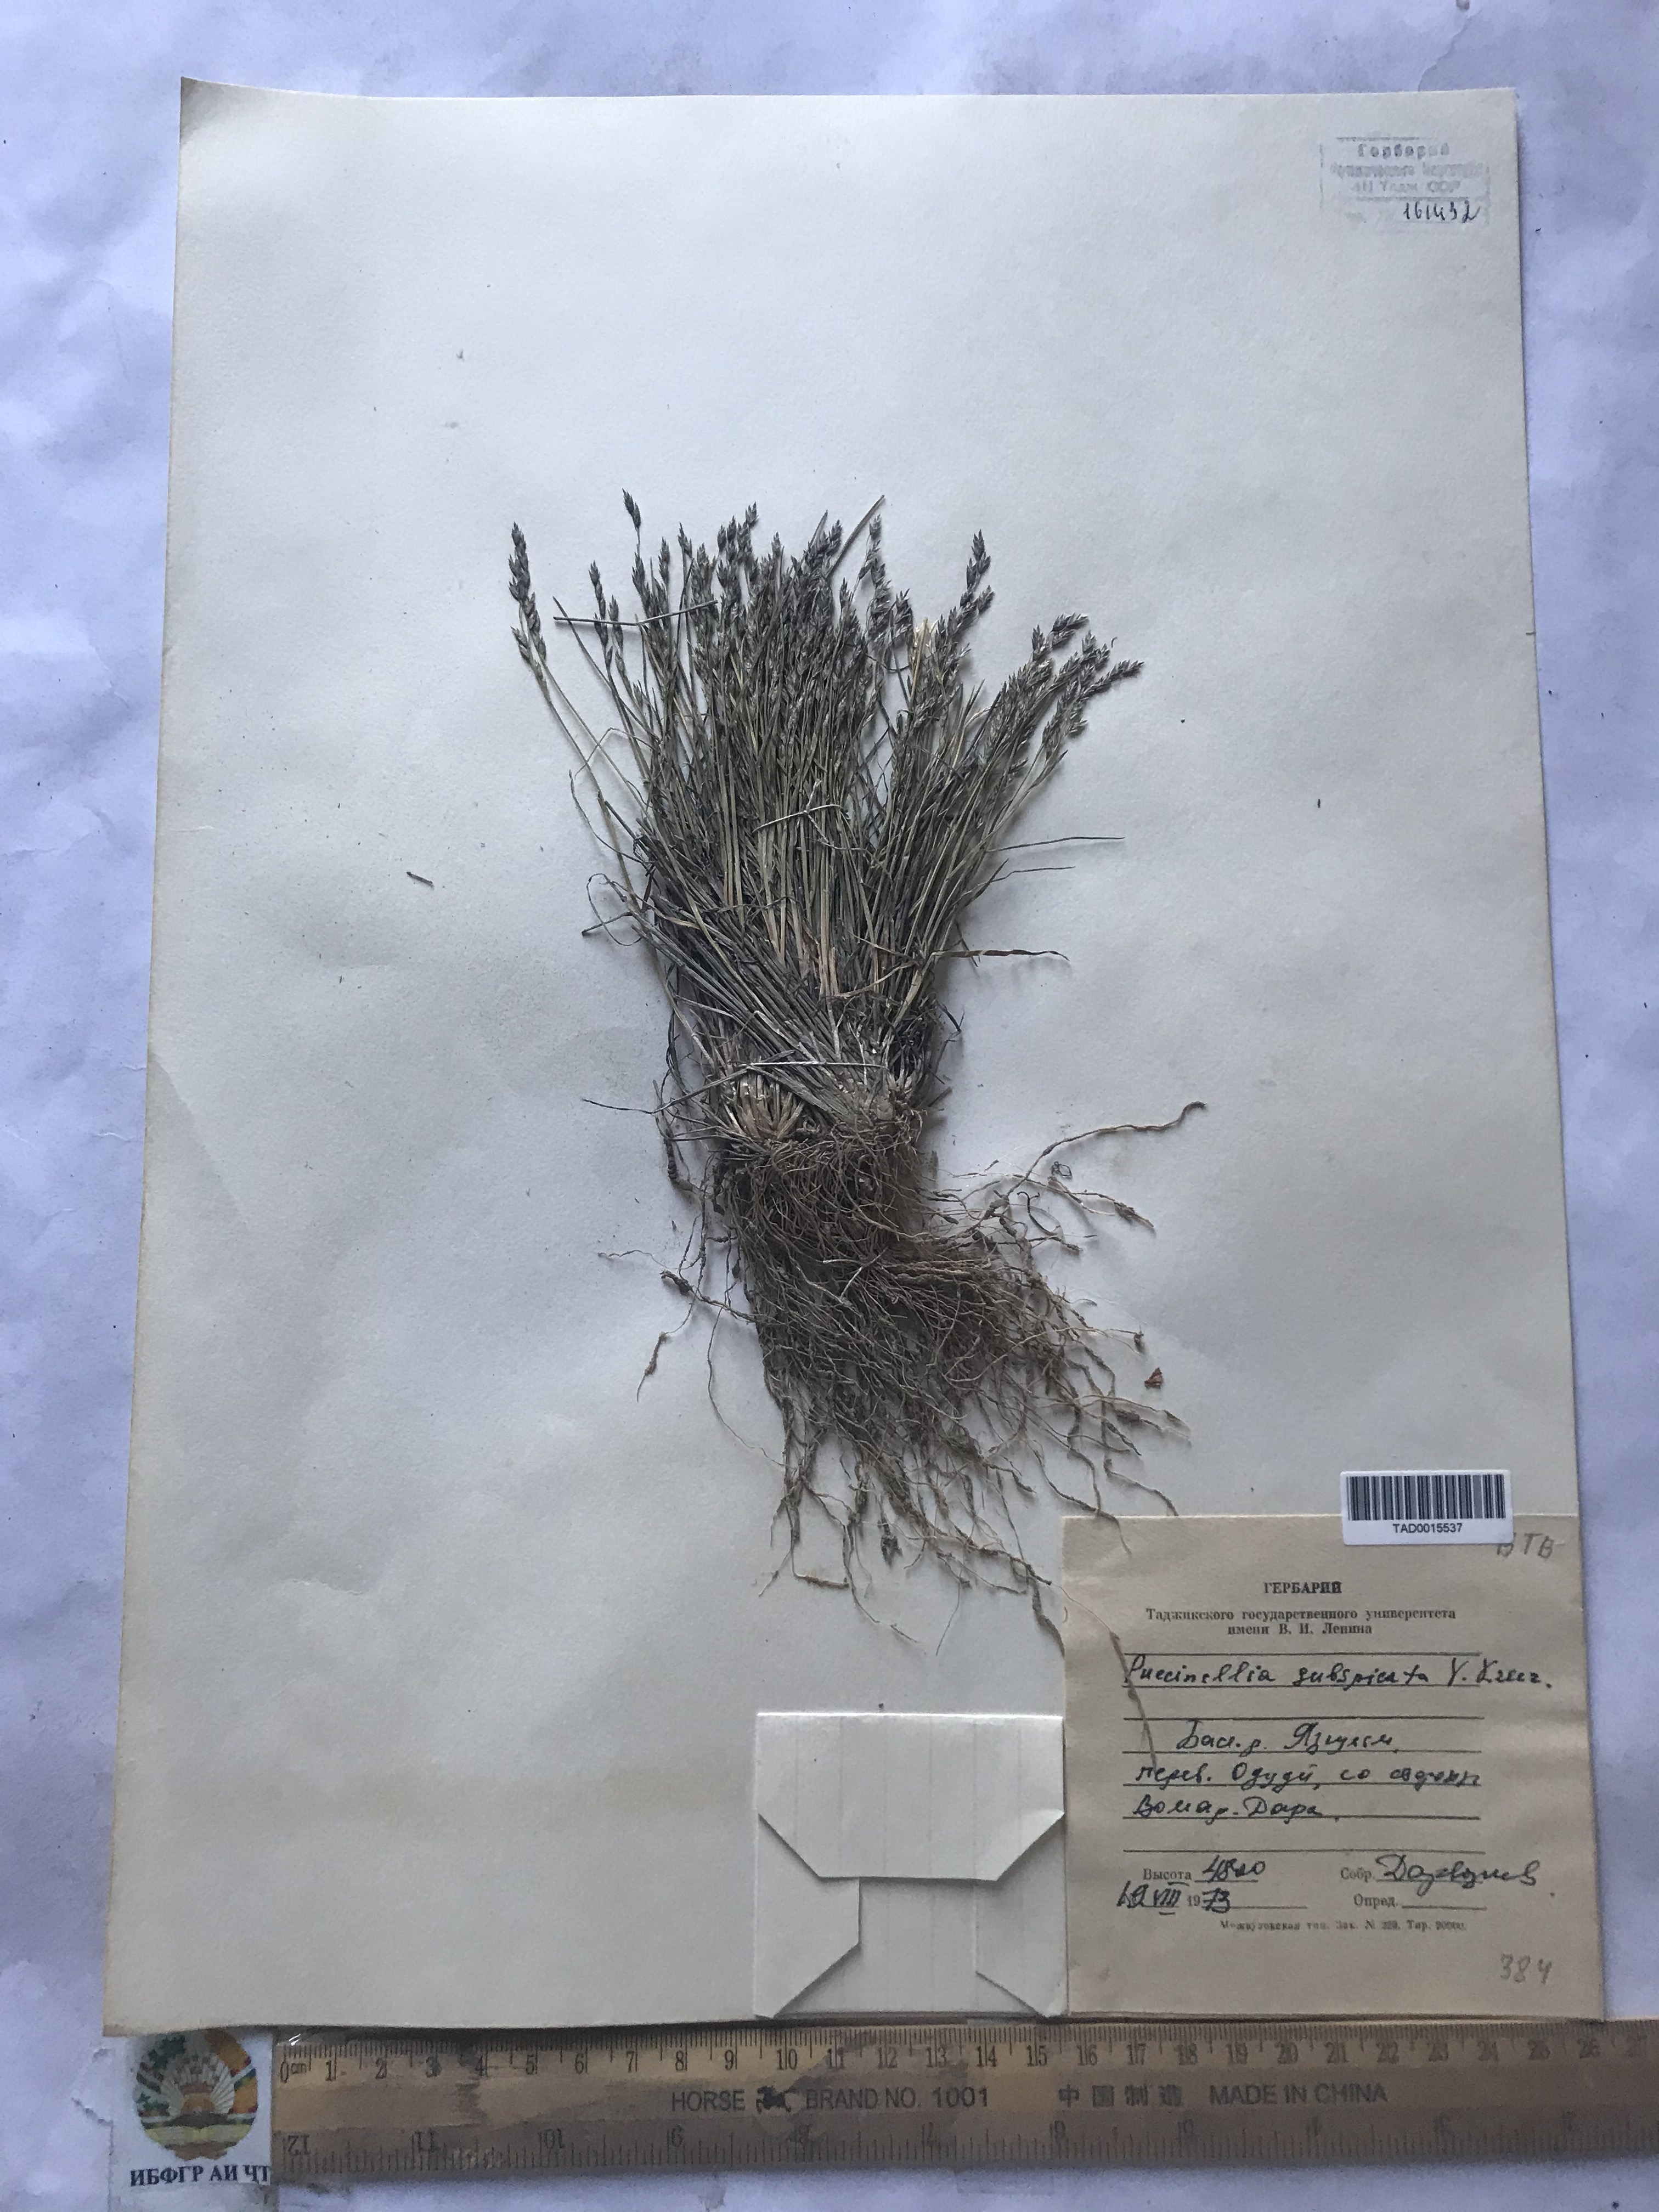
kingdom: Plantae
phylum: Tracheophyta
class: Liliopsida
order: Poales
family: Poaceae
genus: Puccinellia
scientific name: Puccinellia subspicata
